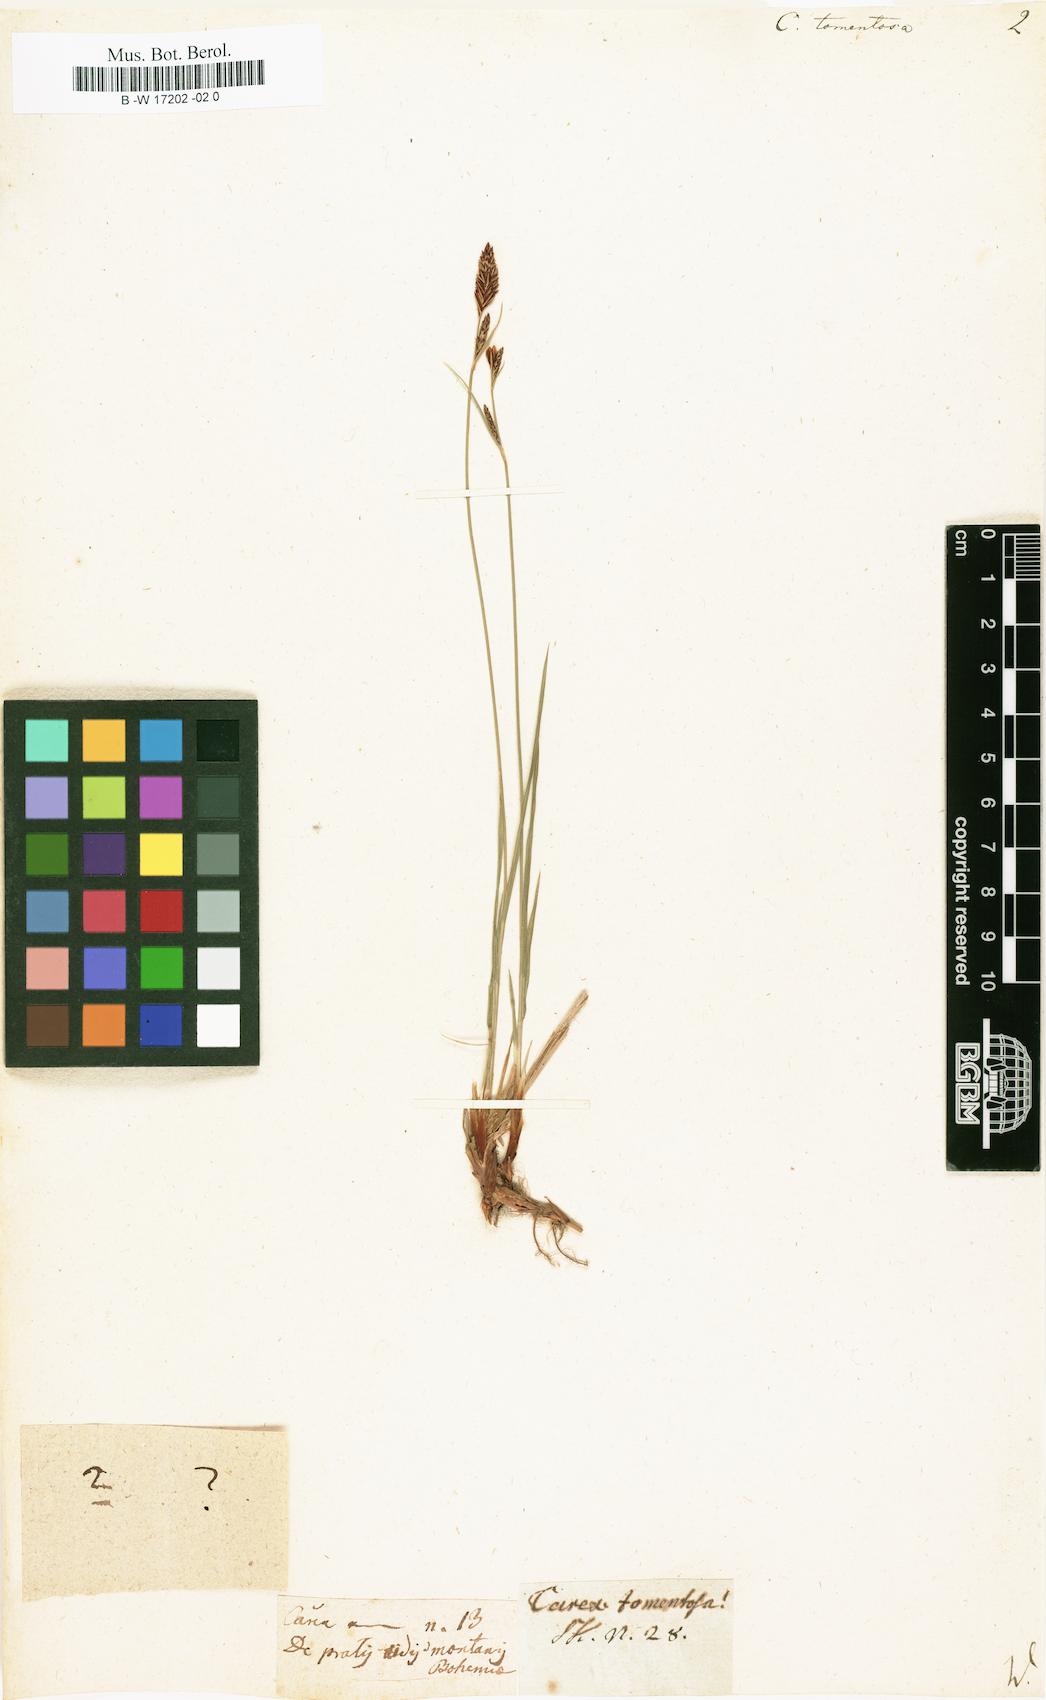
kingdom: Plantae
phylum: Tracheophyta
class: Liliopsida
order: Poales
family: Cyperaceae
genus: Carex
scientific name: Carex tomentosa
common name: Downy-fruited sedge
